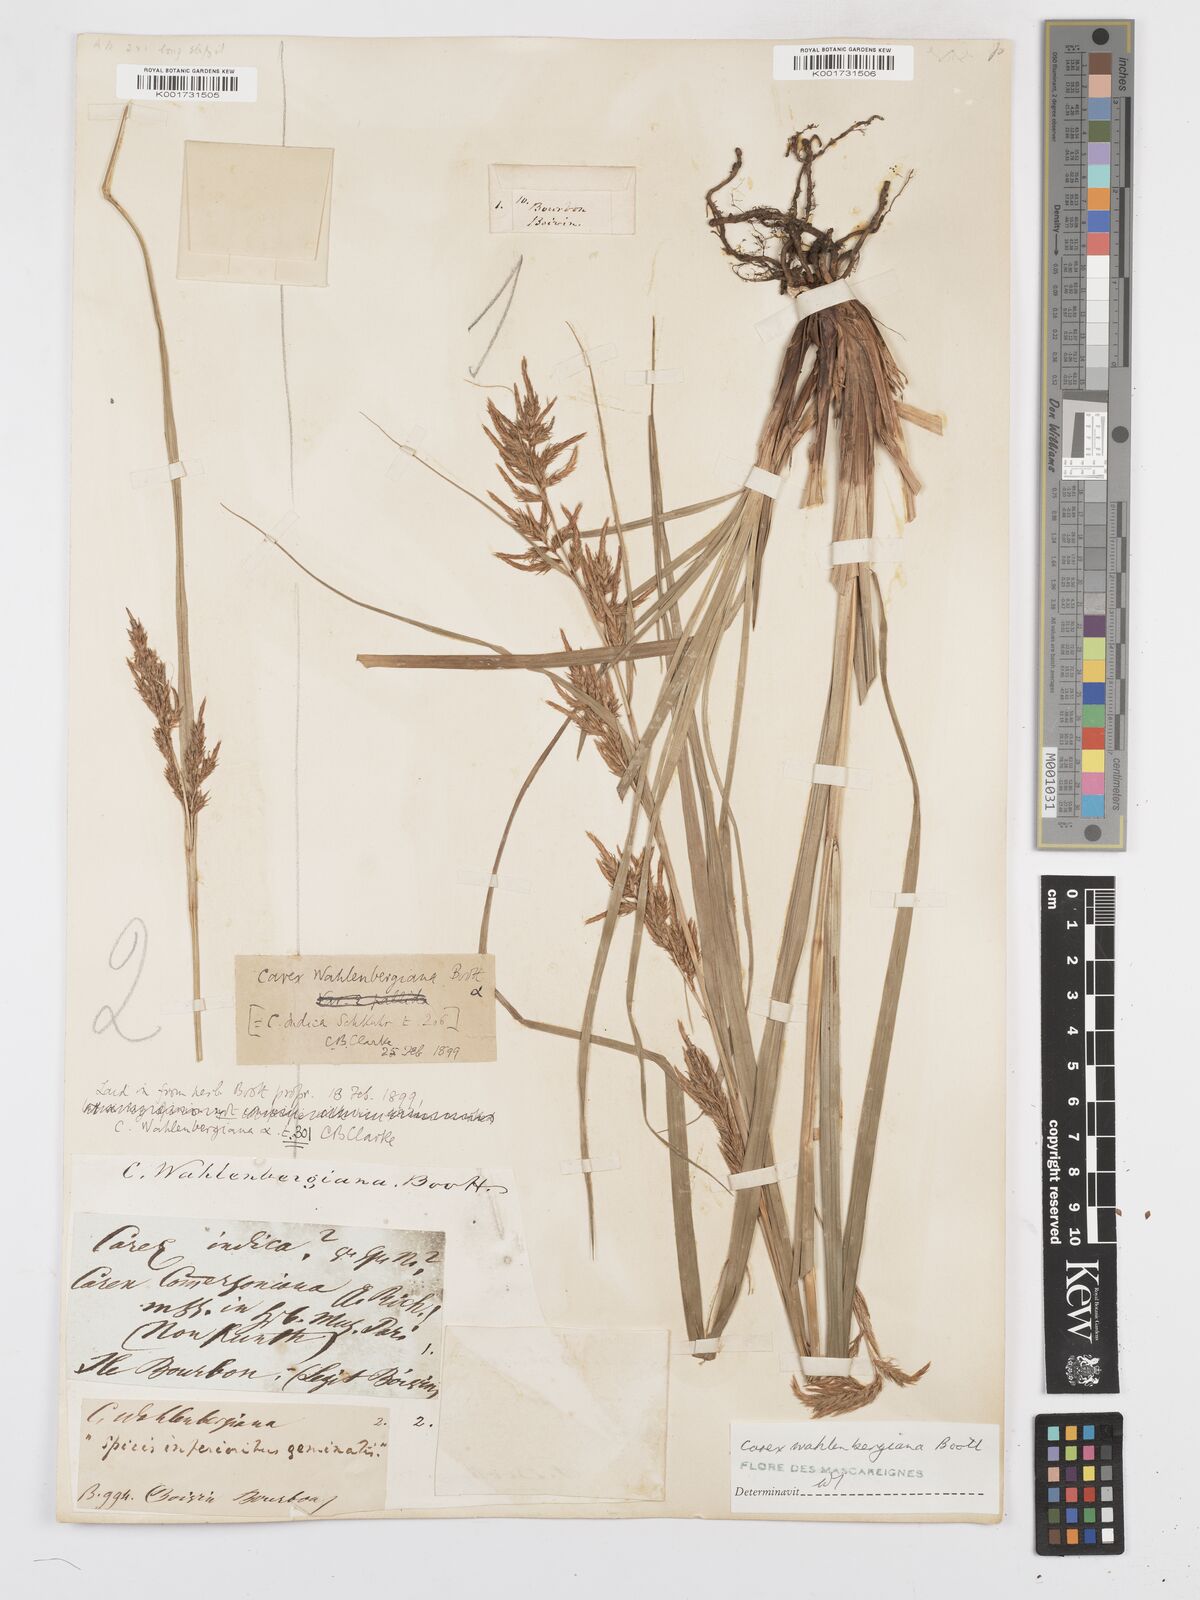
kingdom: Plantae
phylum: Tracheophyta
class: Liliopsida
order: Poales
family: Cyperaceae
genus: Carex
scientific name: Carex wahlenbergiana
